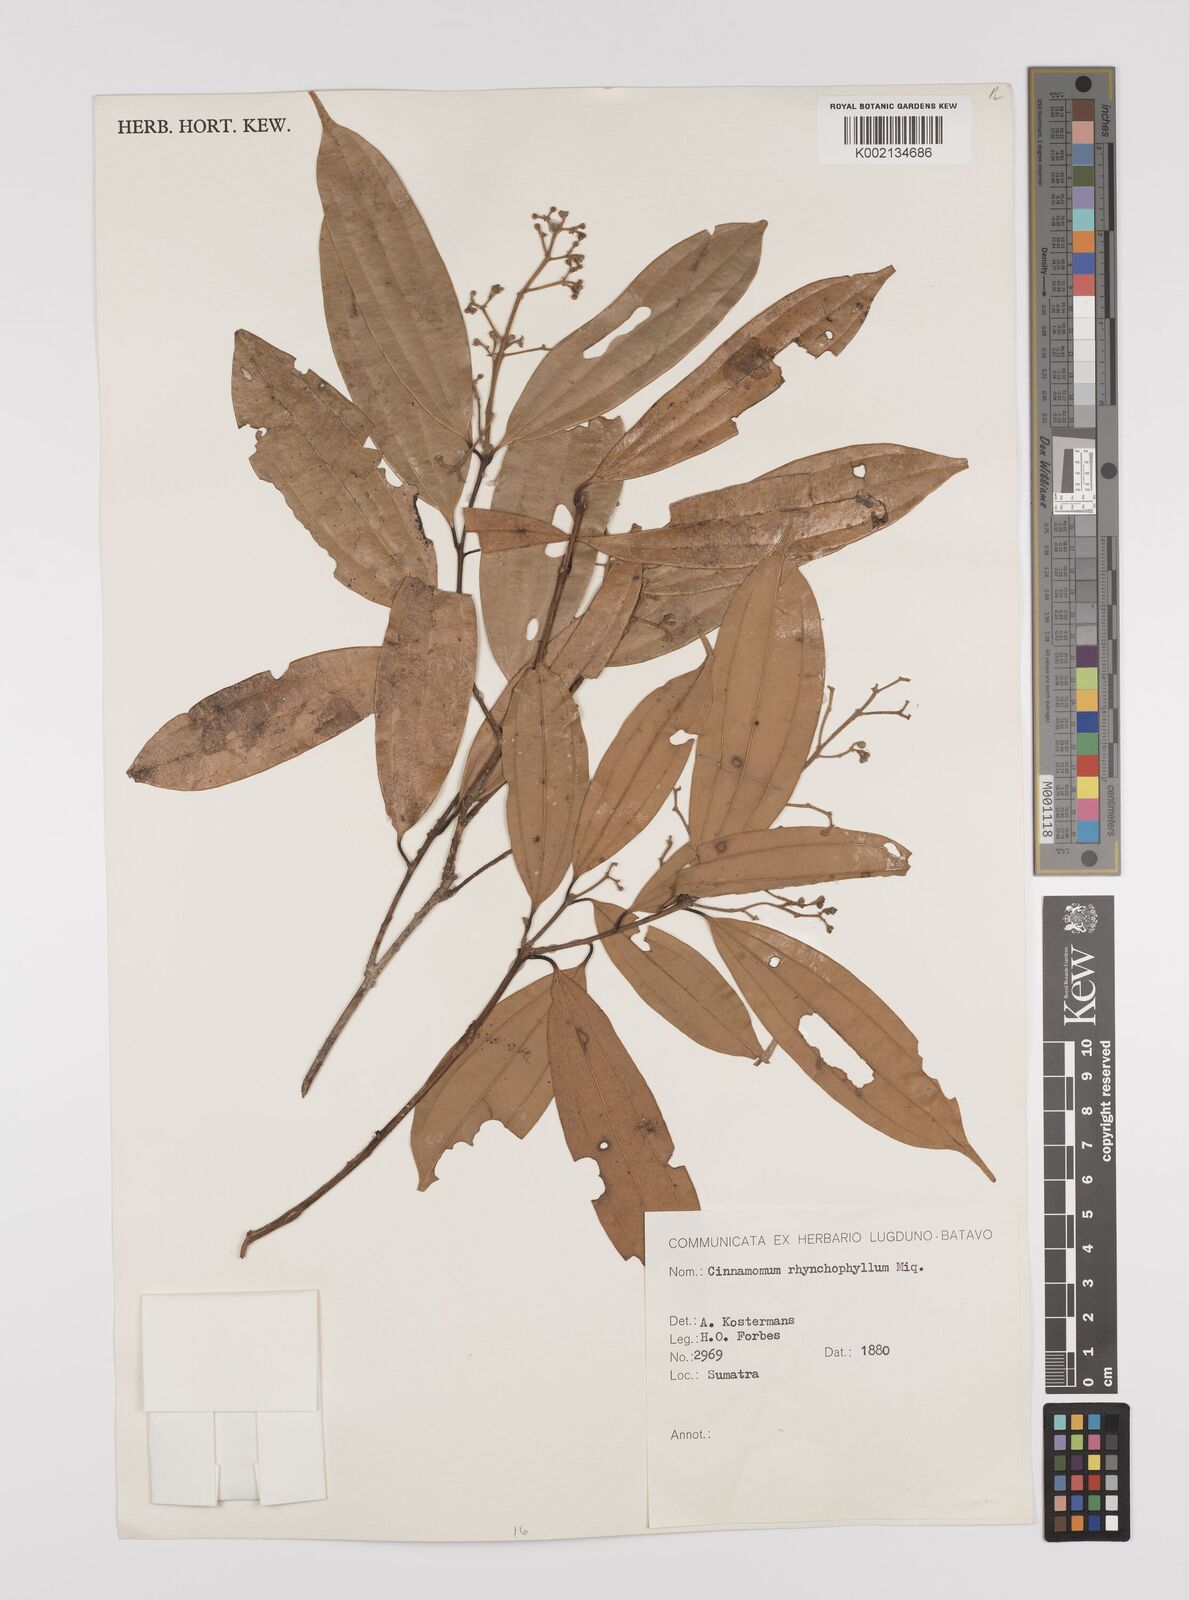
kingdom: Plantae
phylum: Tracheophyta
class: Magnoliopsida
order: Laurales
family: Lauraceae
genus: Cinnamomum
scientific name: Cinnamomum rhynchophyllum
